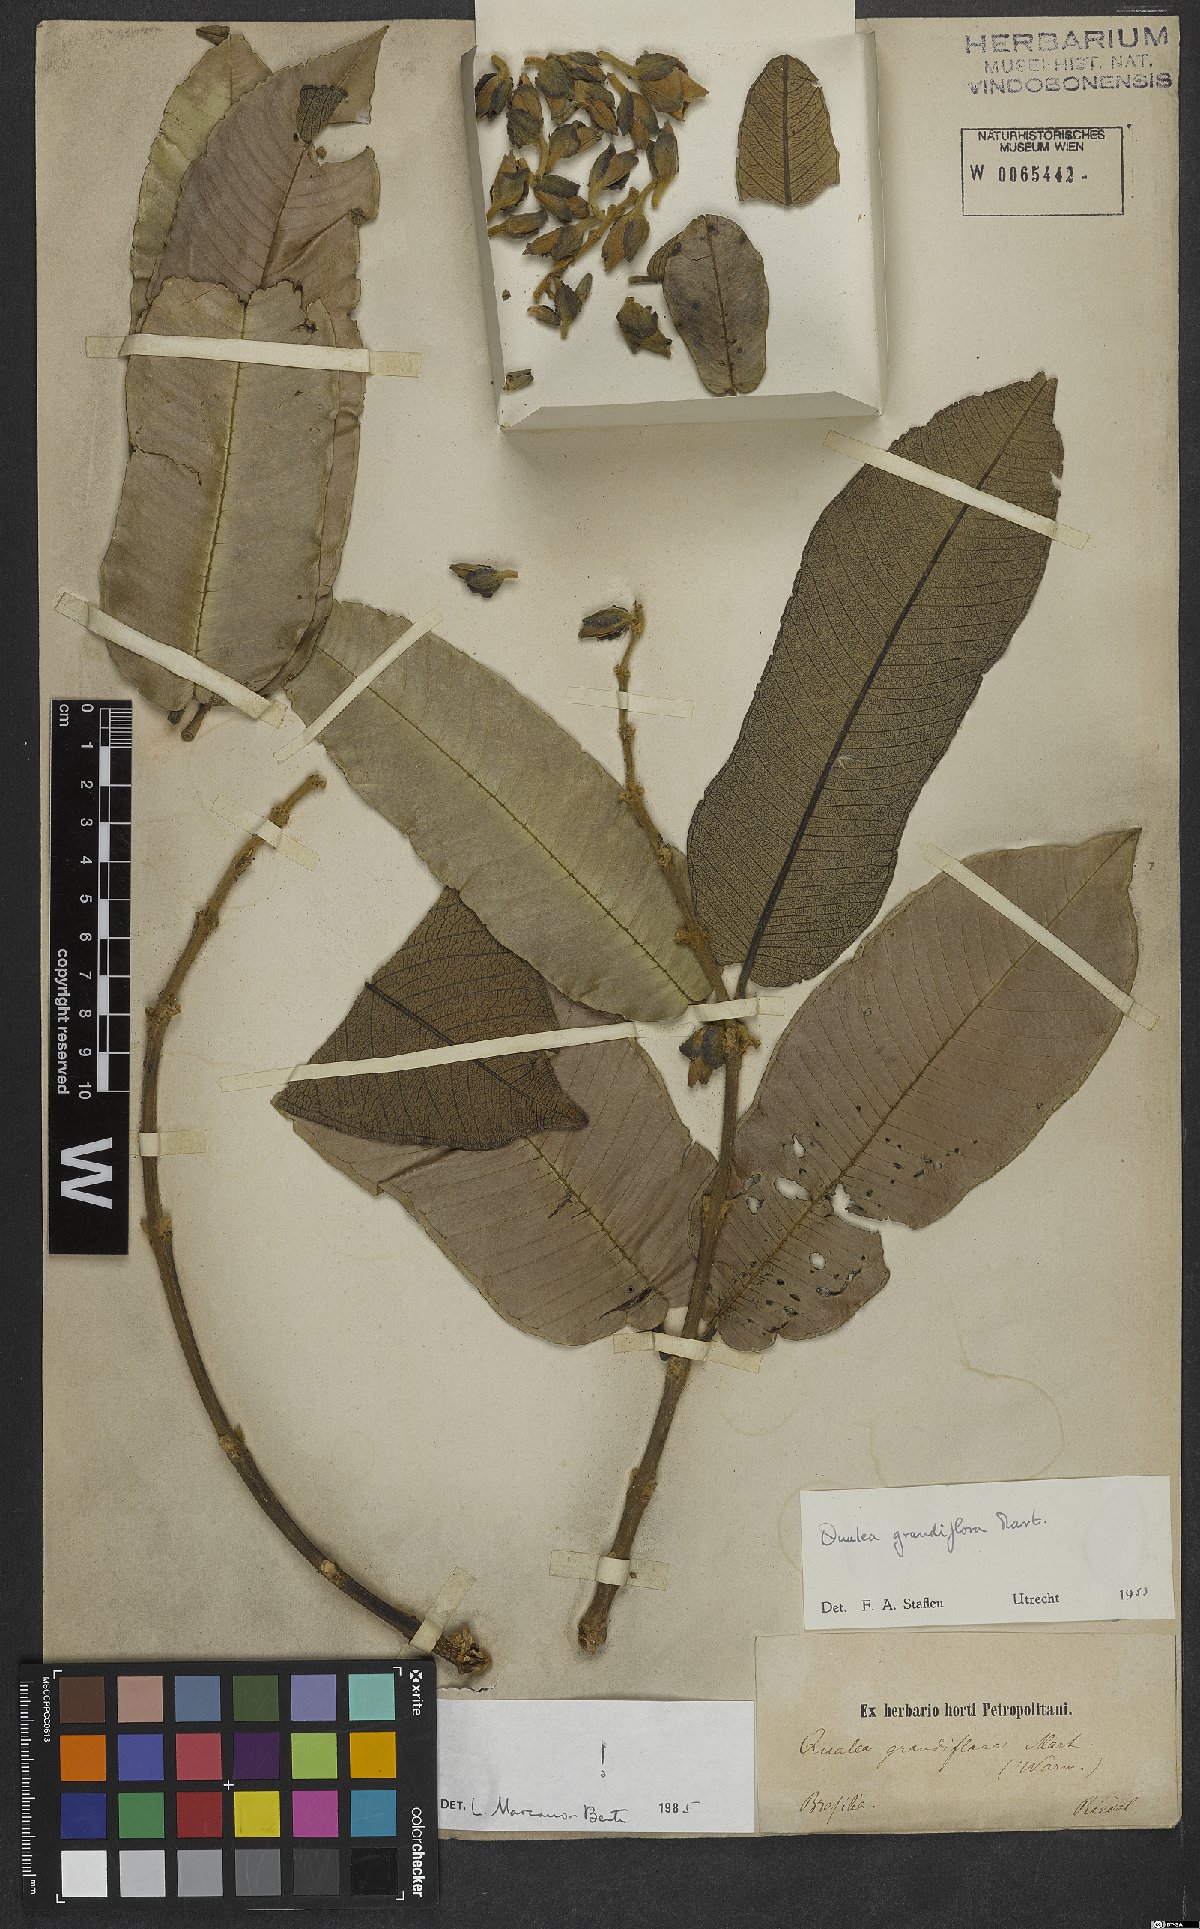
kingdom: Plantae
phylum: Tracheophyta
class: Magnoliopsida
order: Myrtales
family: Vochysiaceae
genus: Qualea
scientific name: Qualea grandiflora
